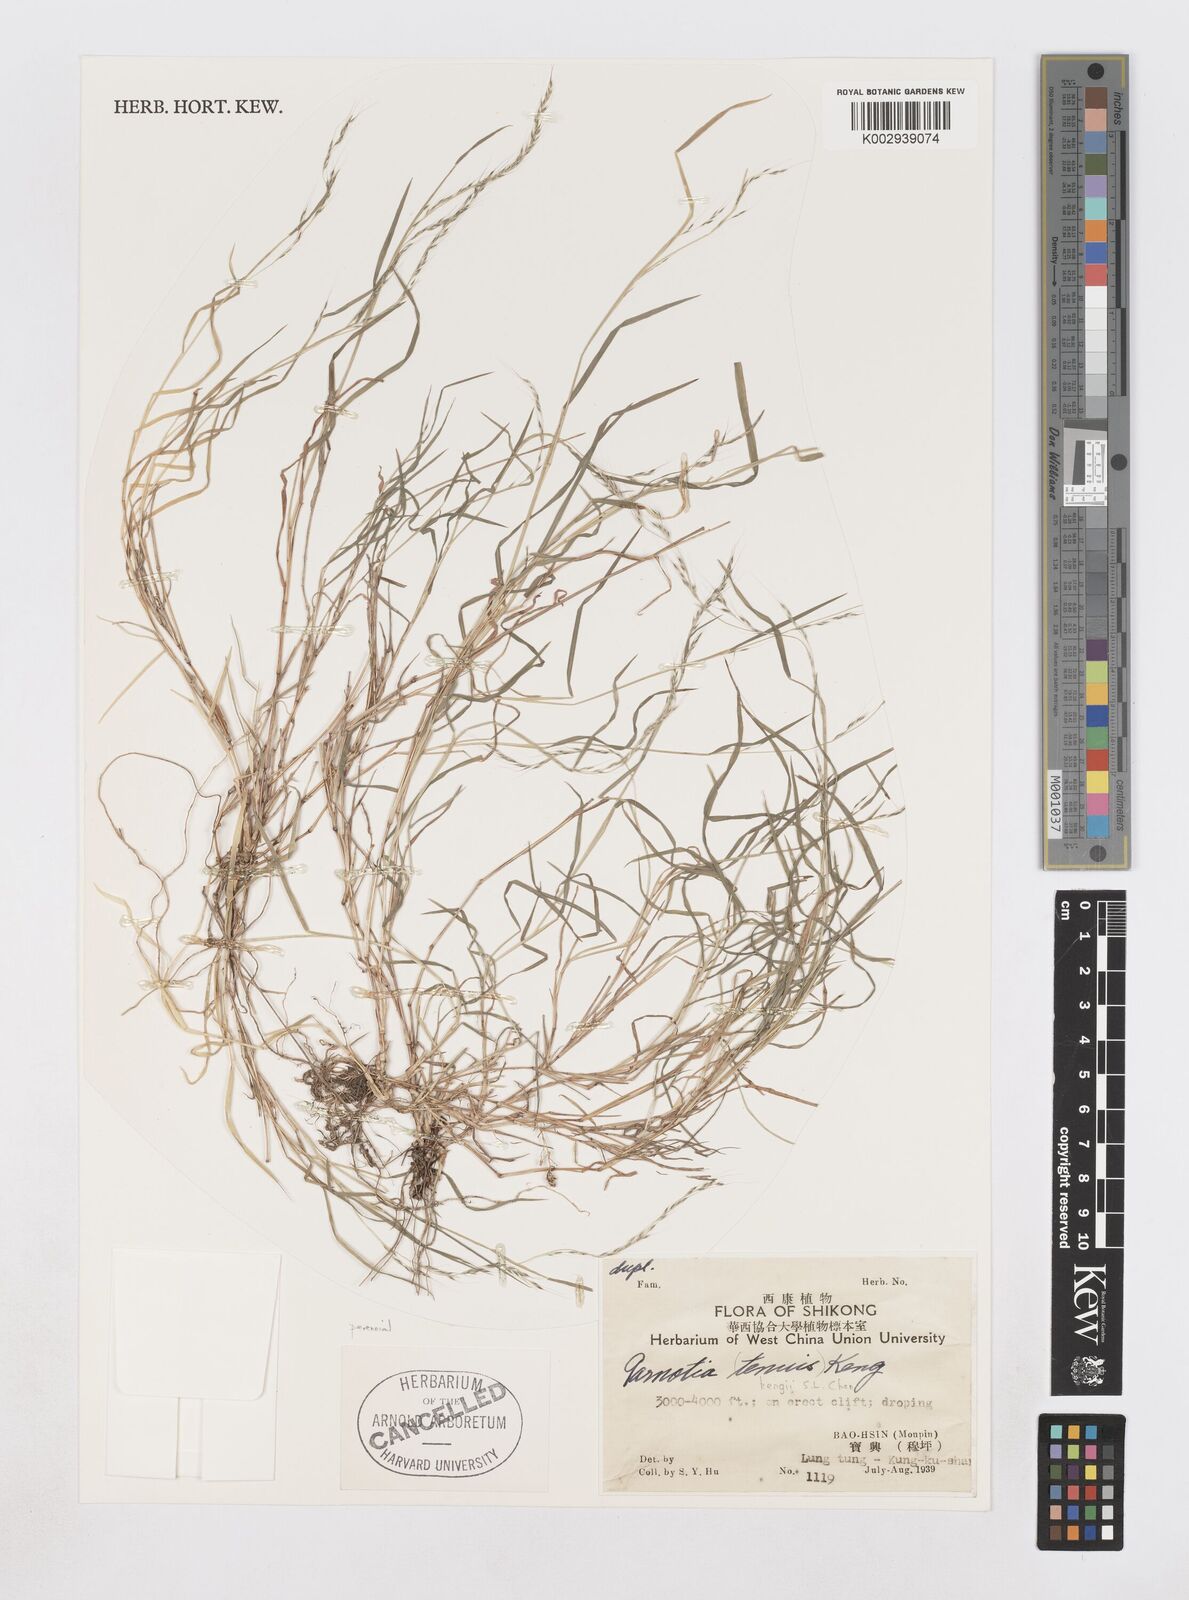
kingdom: Plantae
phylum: Tracheophyta
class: Liliopsida
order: Poales
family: Poaceae
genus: Muhlenbergia
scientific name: Muhlenbergia himalayensis
